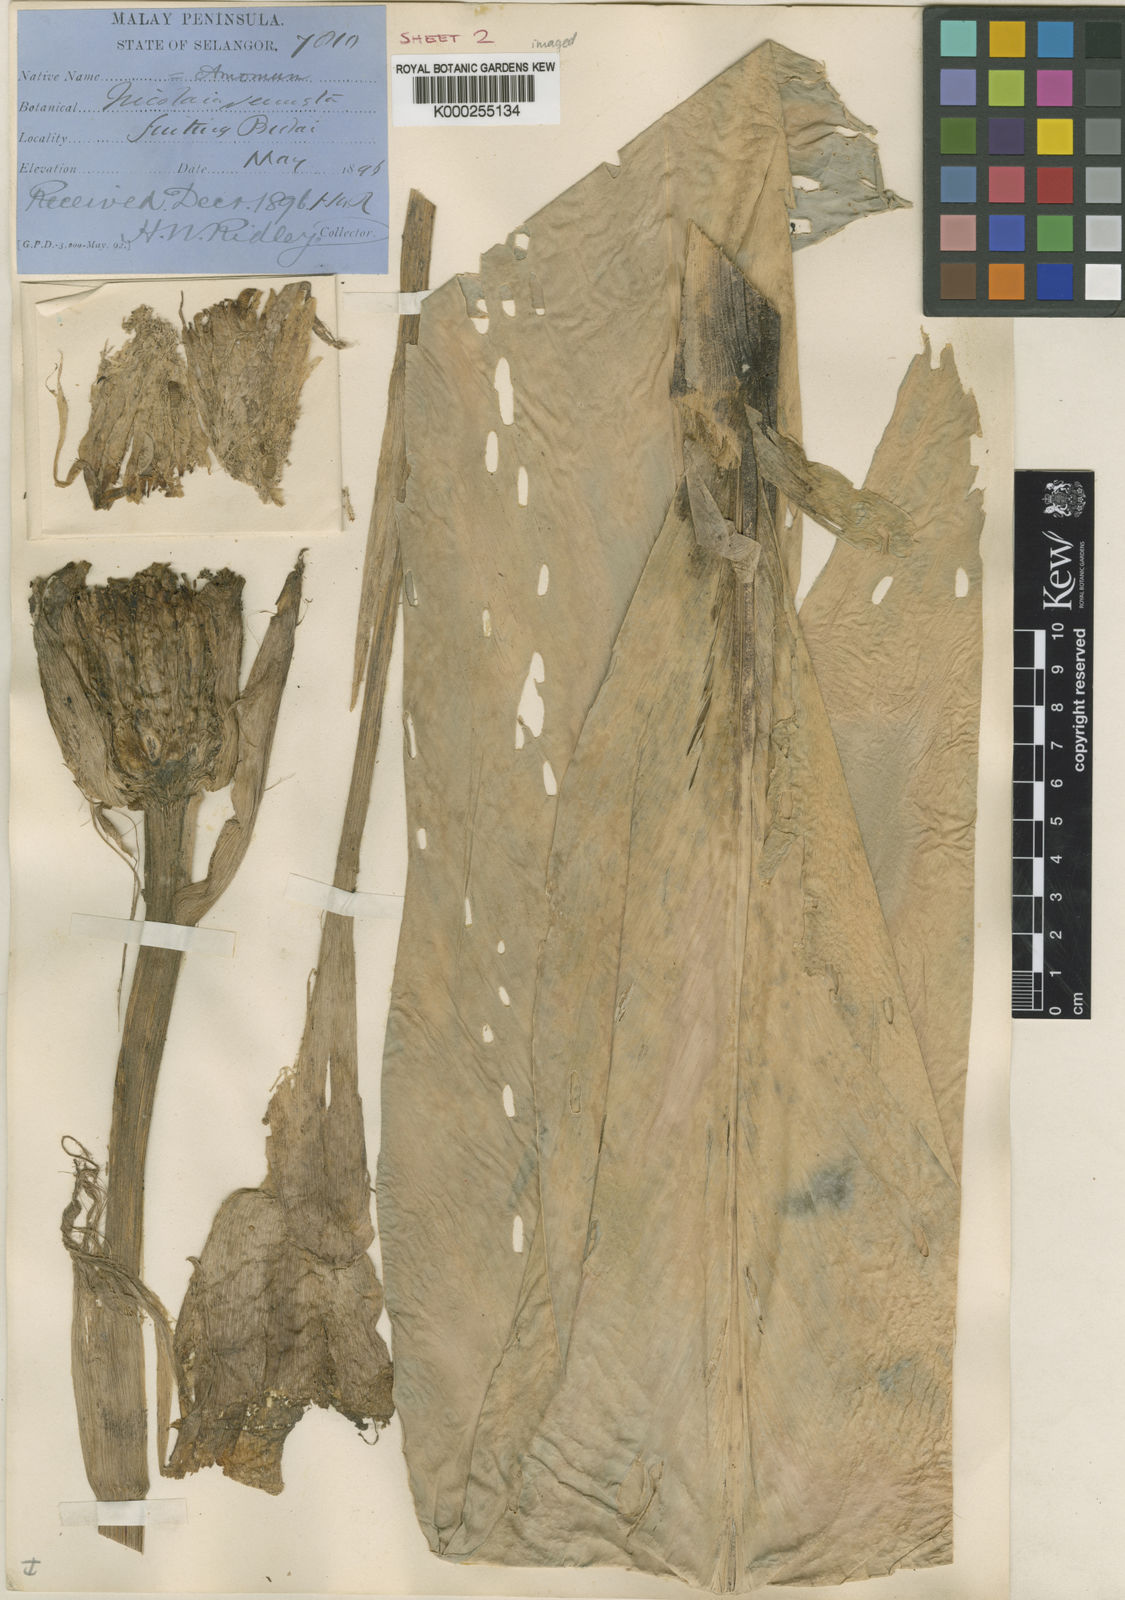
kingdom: Plantae
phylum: Tracheophyta
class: Liliopsida
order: Zingiberales
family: Zingiberaceae
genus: Etlingera
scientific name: Etlingera venusta
